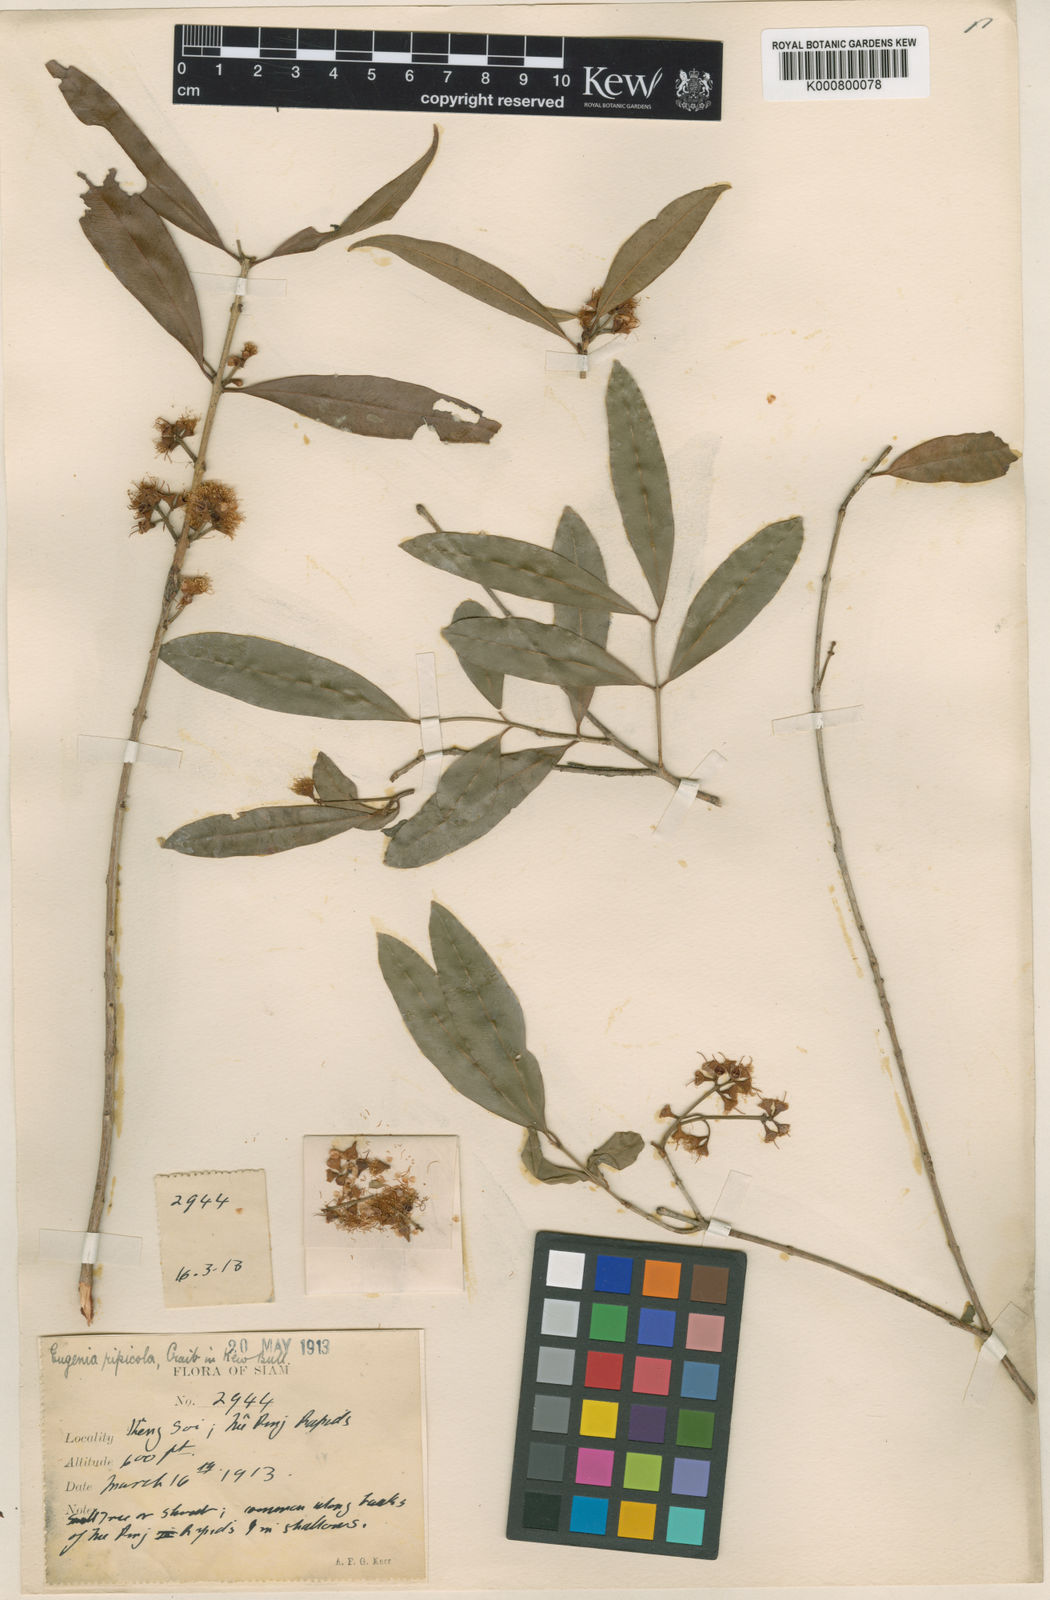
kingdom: Plantae
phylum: Tracheophyta
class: Magnoliopsida
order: Myrtales
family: Myrtaceae
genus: Syzygium
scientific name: Syzygium ripicola
